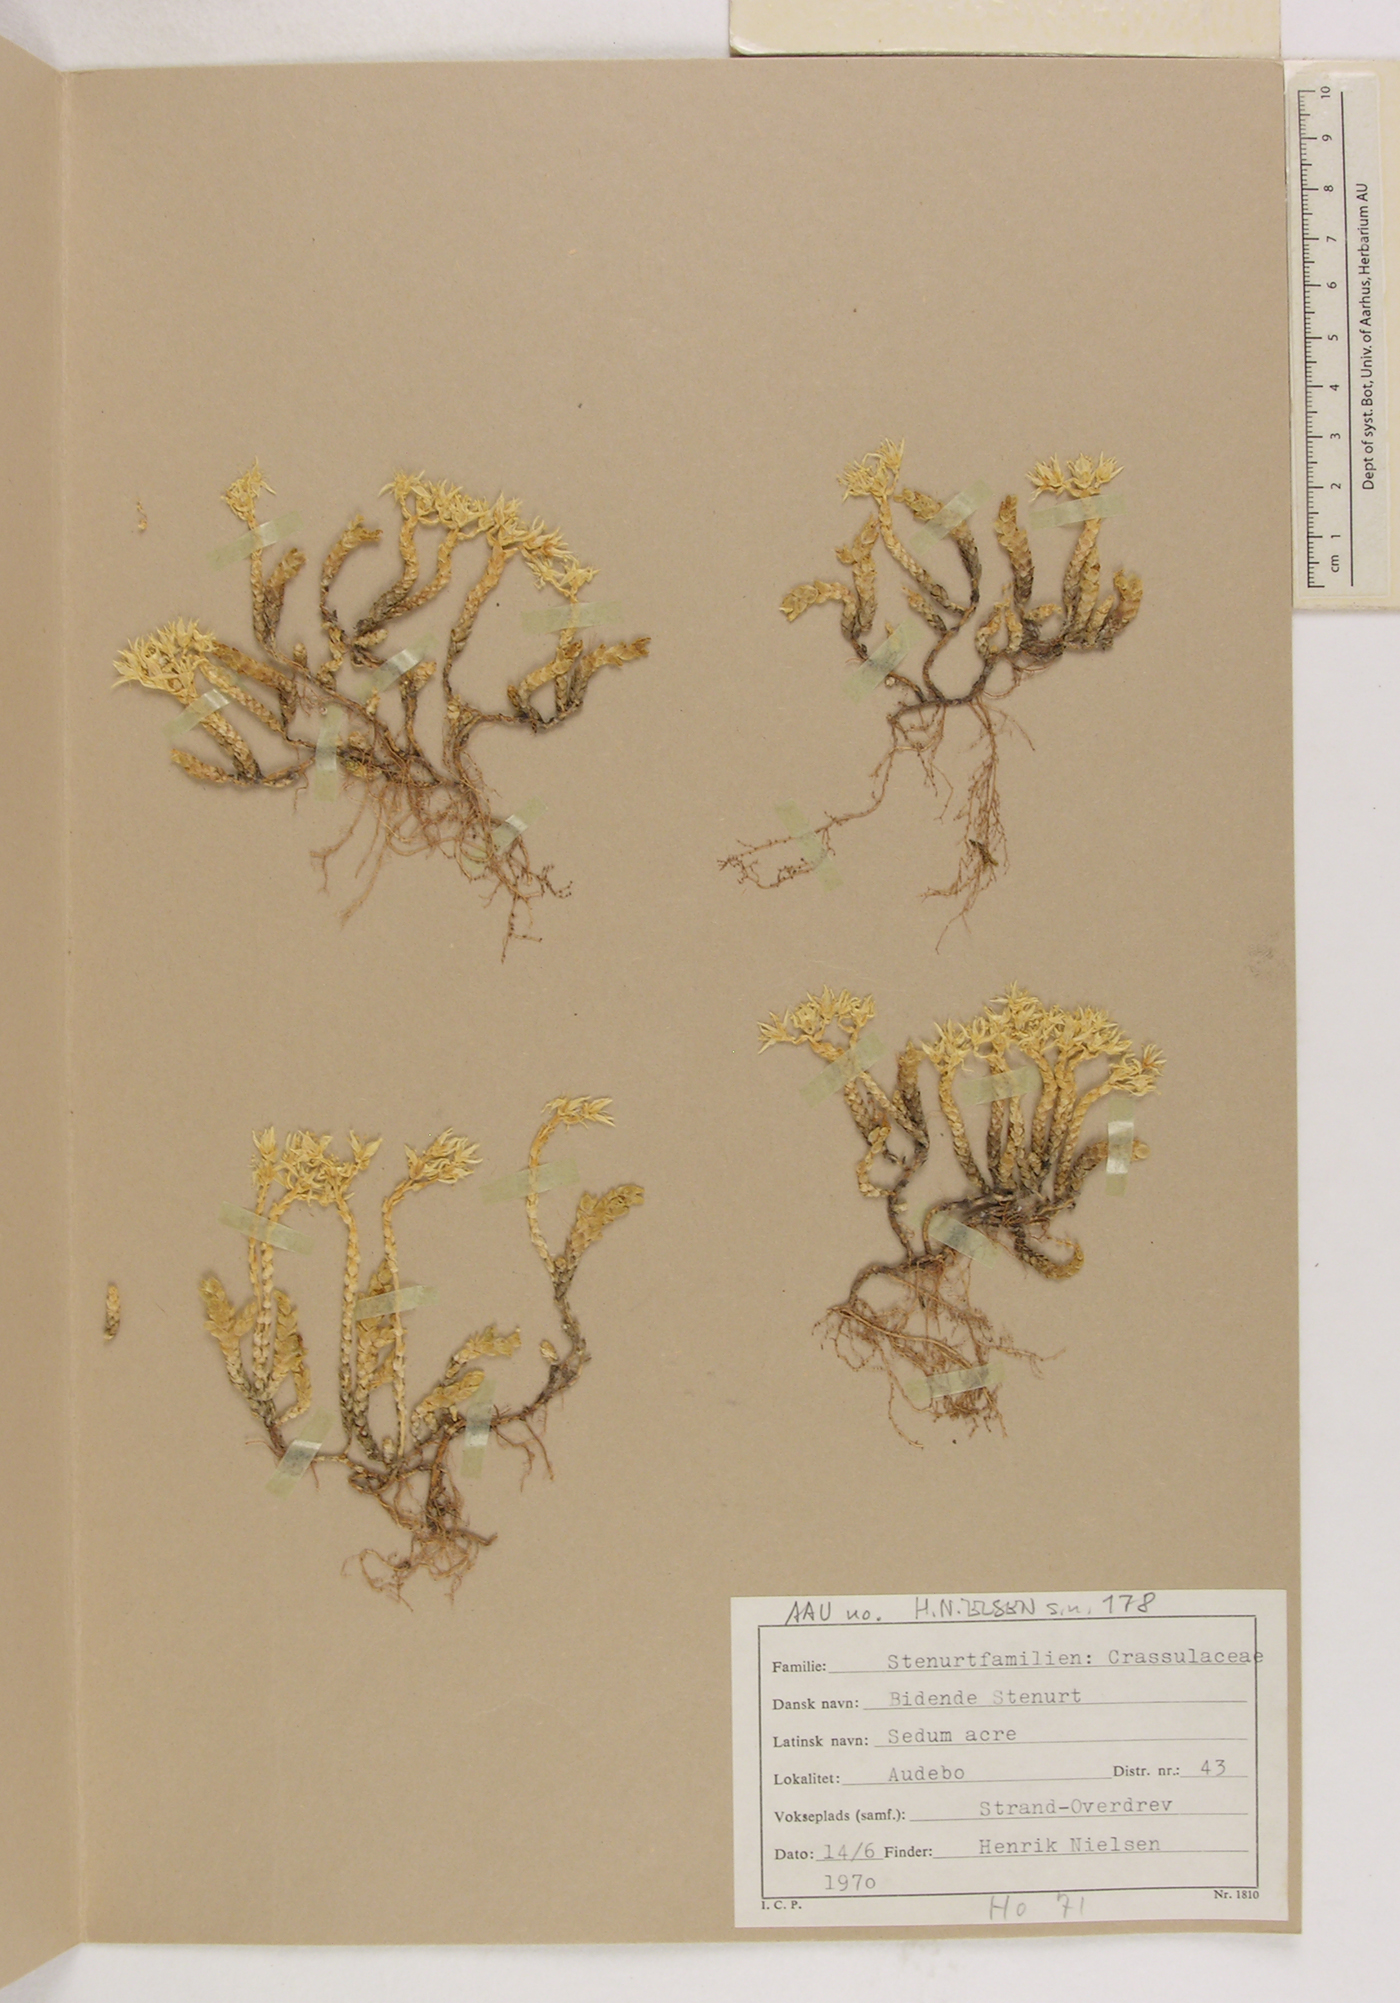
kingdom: Plantae
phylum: Tracheophyta
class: Magnoliopsida
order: Saxifragales
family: Crassulaceae
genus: Sedum
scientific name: Sedum acre
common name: Biting stonecrop
